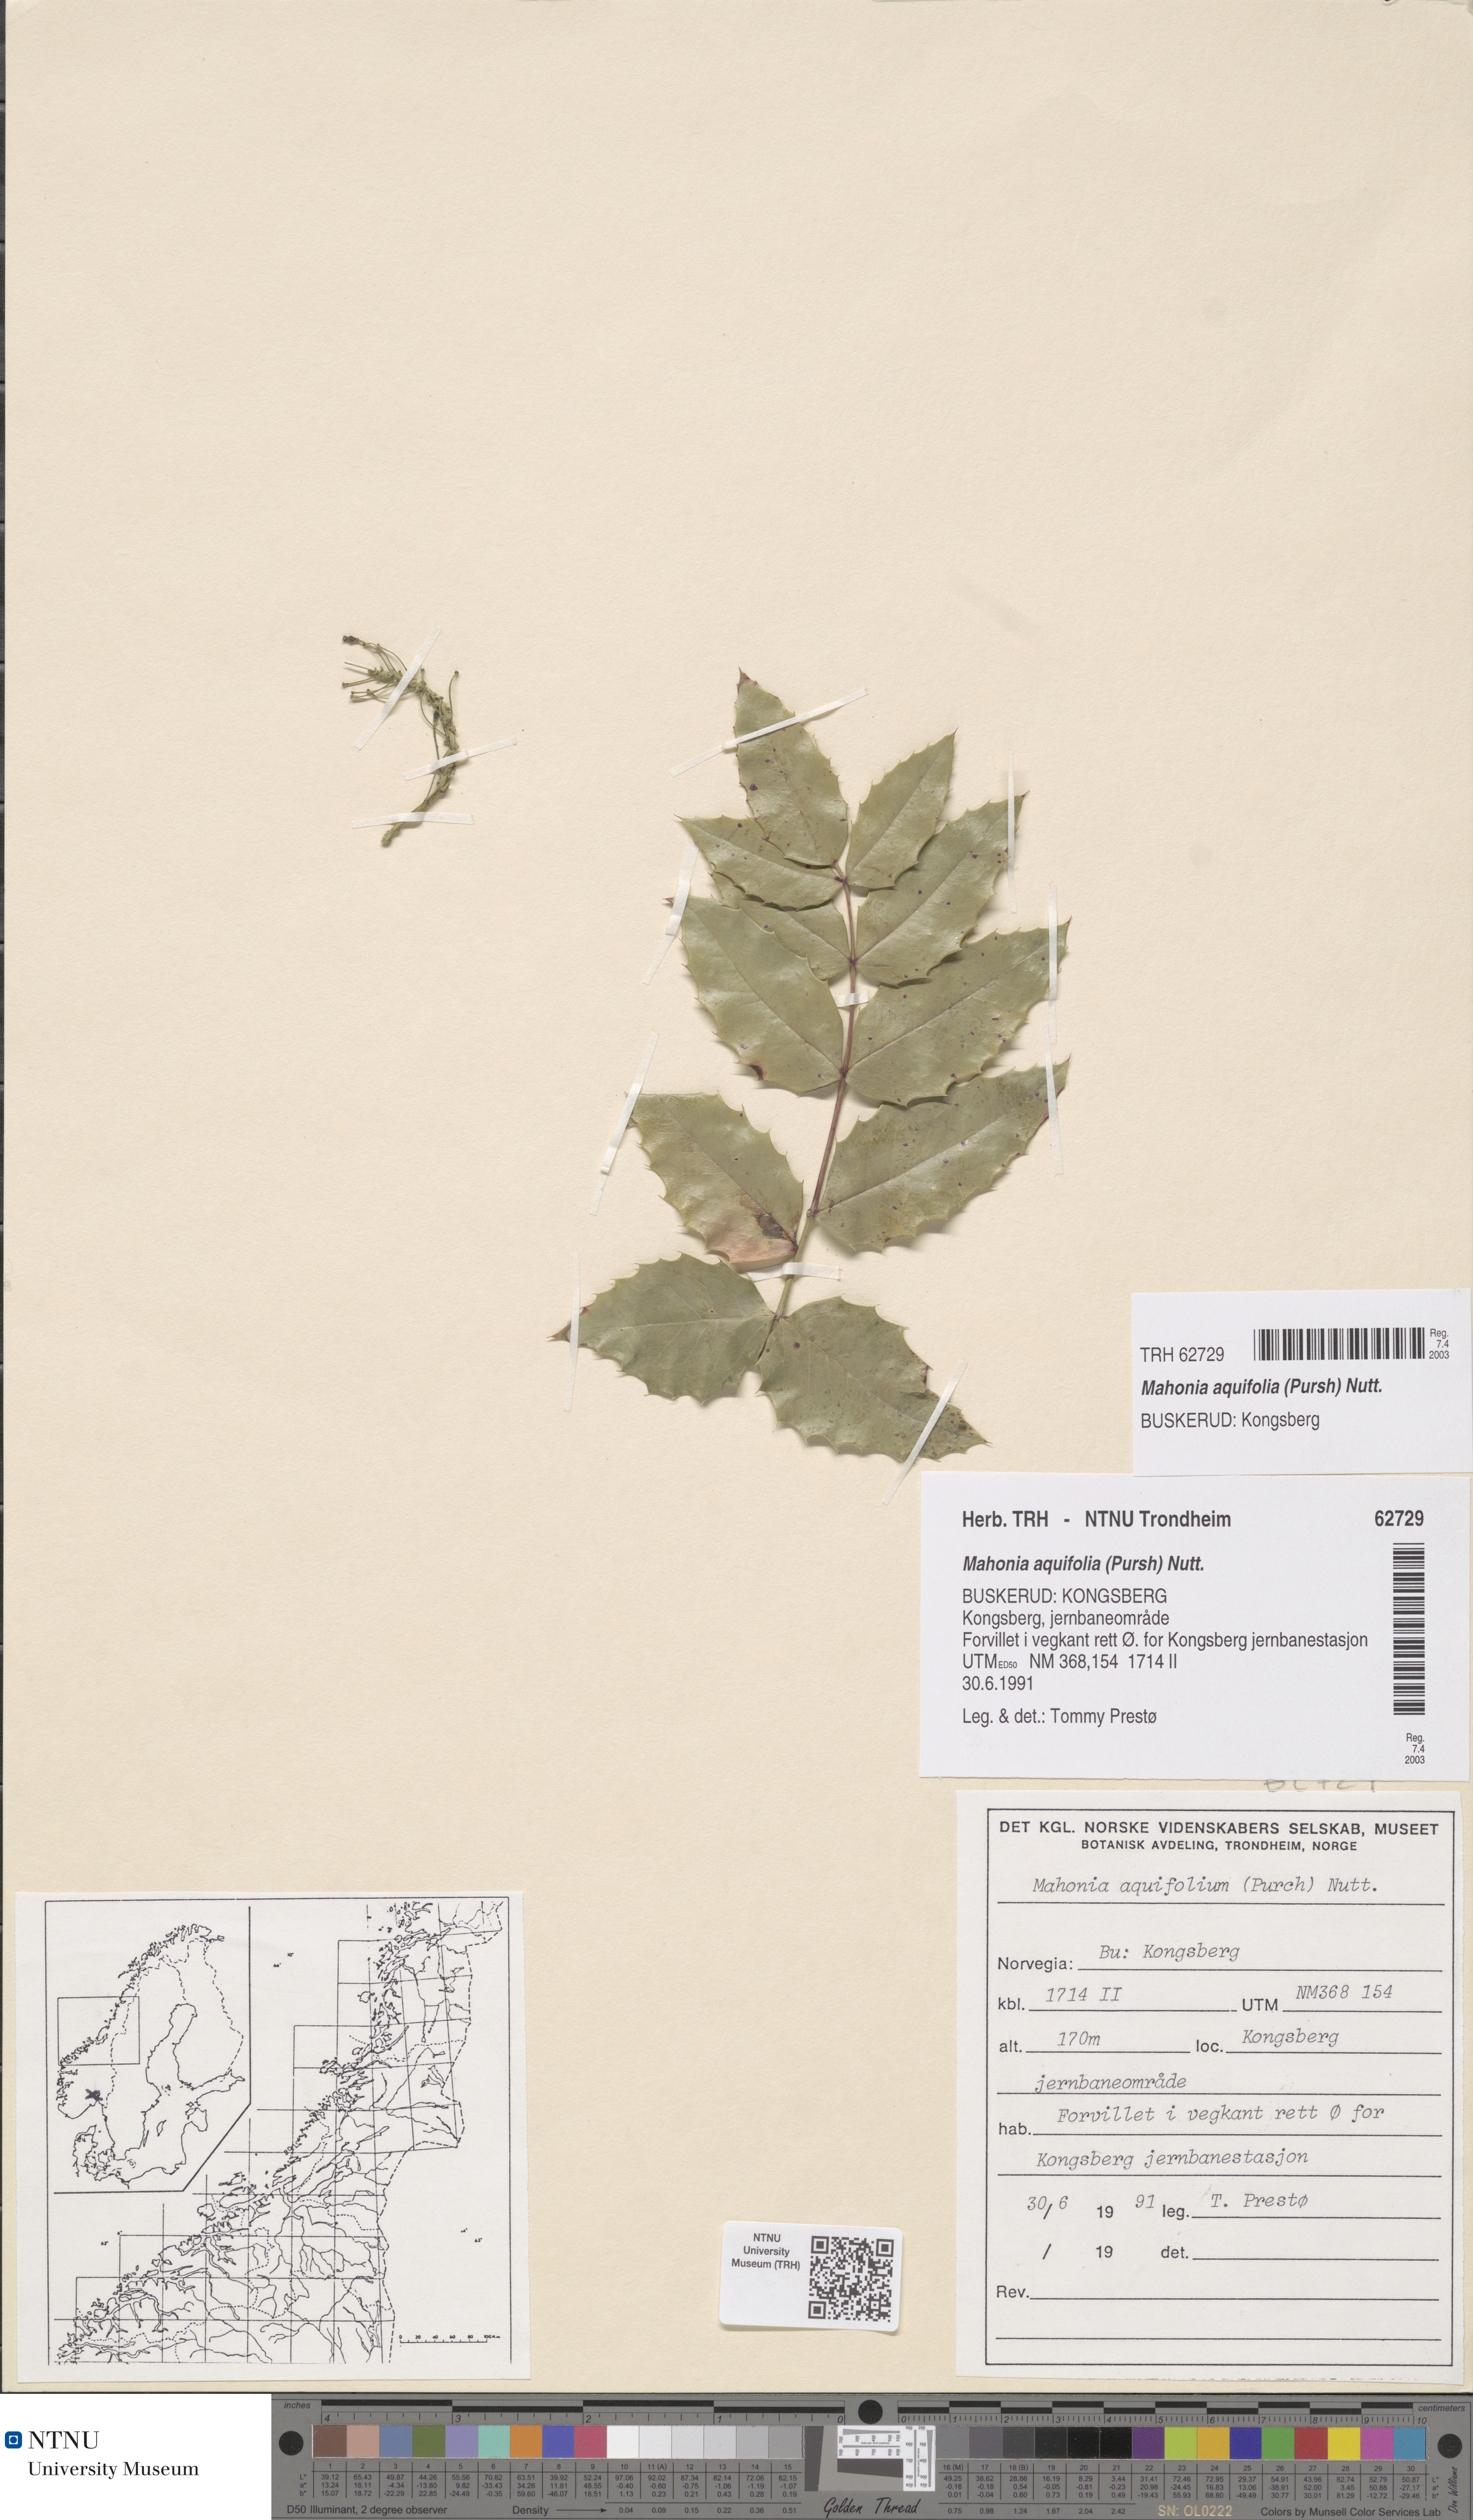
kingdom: Plantae
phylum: Tracheophyta
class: Magnoliopsida
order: Ranunculales
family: Berberidaceae
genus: Mahonia
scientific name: Mahonia aquifolium
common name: Oregon-grape
